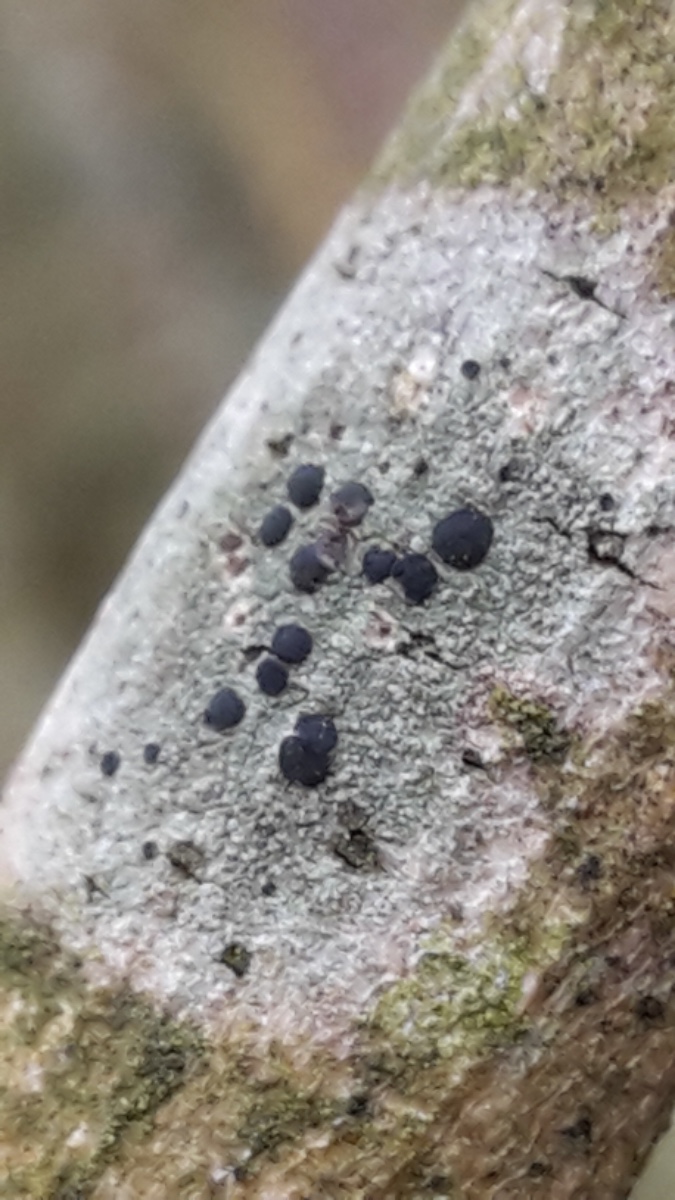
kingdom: Fungi
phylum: Ascomycota
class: Lecanoromycetes
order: Lecanorales
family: Lecanoraceae
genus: Lecidella
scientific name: Lecidella elaeochroma
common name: grågrøn skivelav
